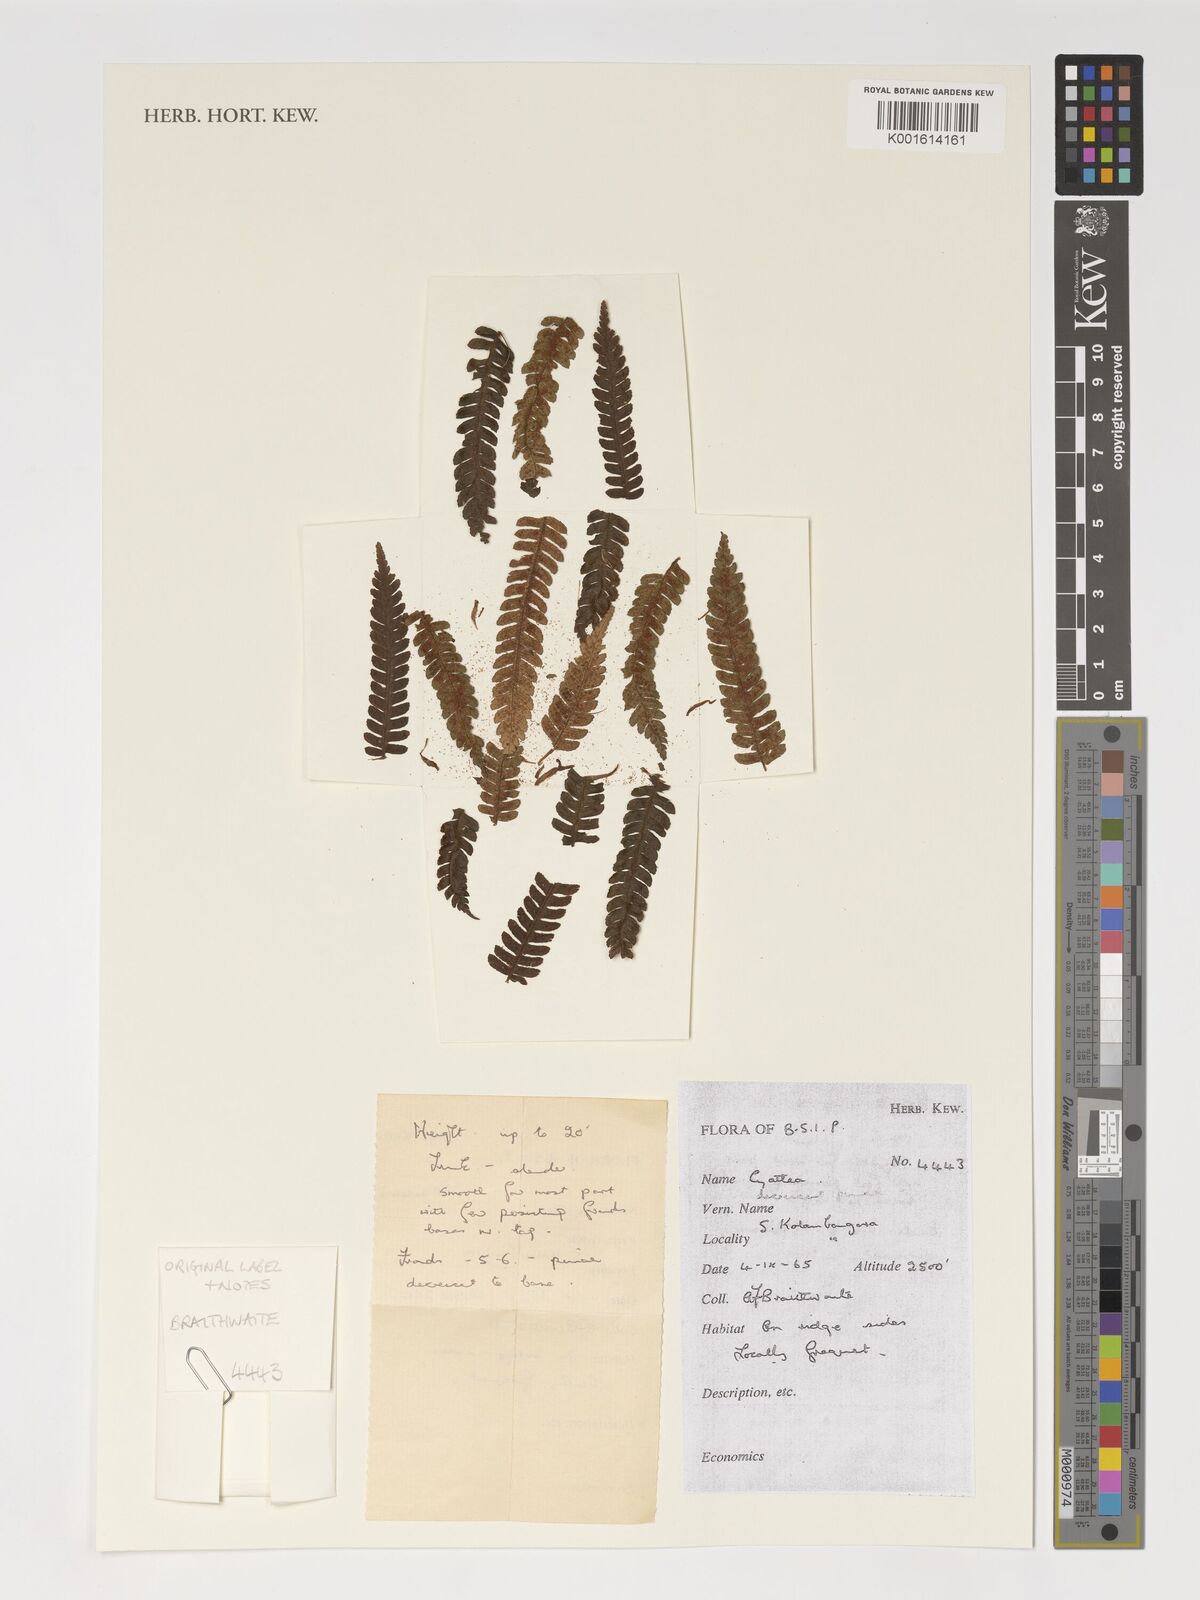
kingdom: Plantae
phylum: Tracheophyta
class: Polypodiopsida
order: Cyatheales
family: Cyatheaceae
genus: Cyathea
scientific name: Cyathea
